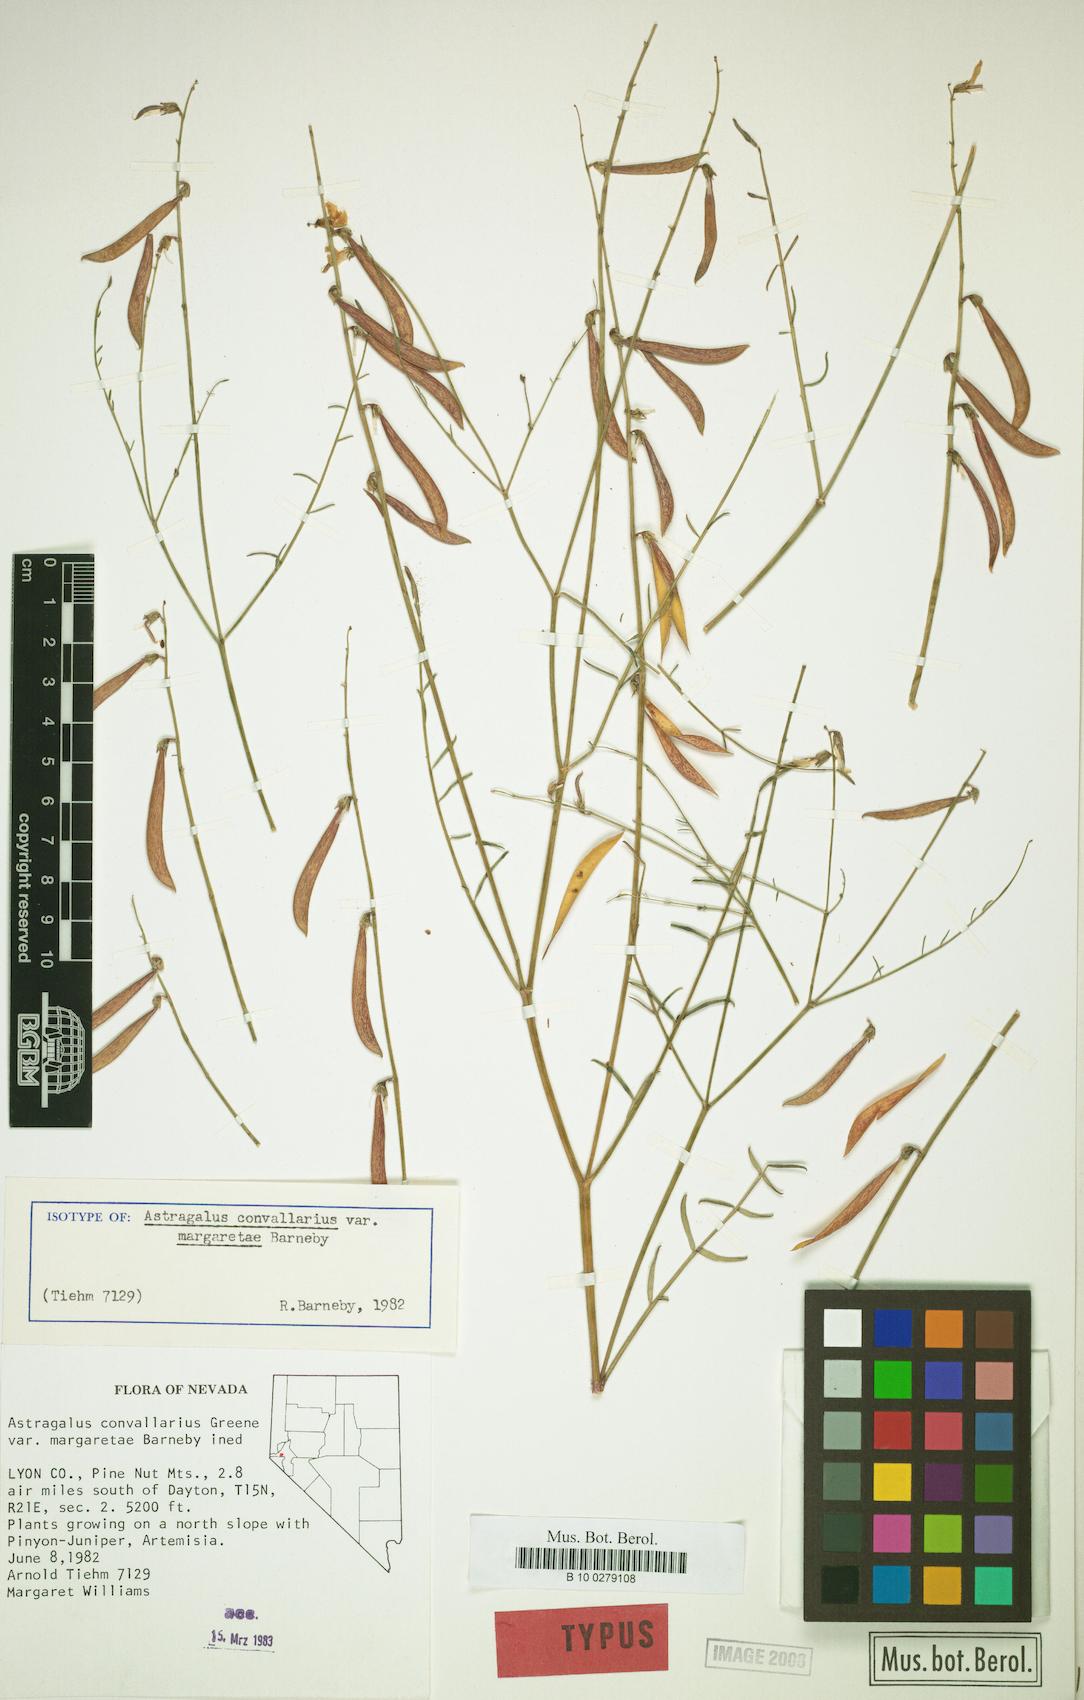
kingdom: Plantae
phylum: Tracheophyta
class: Magnoliopsida
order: Fabales
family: Fabaceae
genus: Astragalus
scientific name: Astragalus convallarius
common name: Lesser rushy milk-vetch
